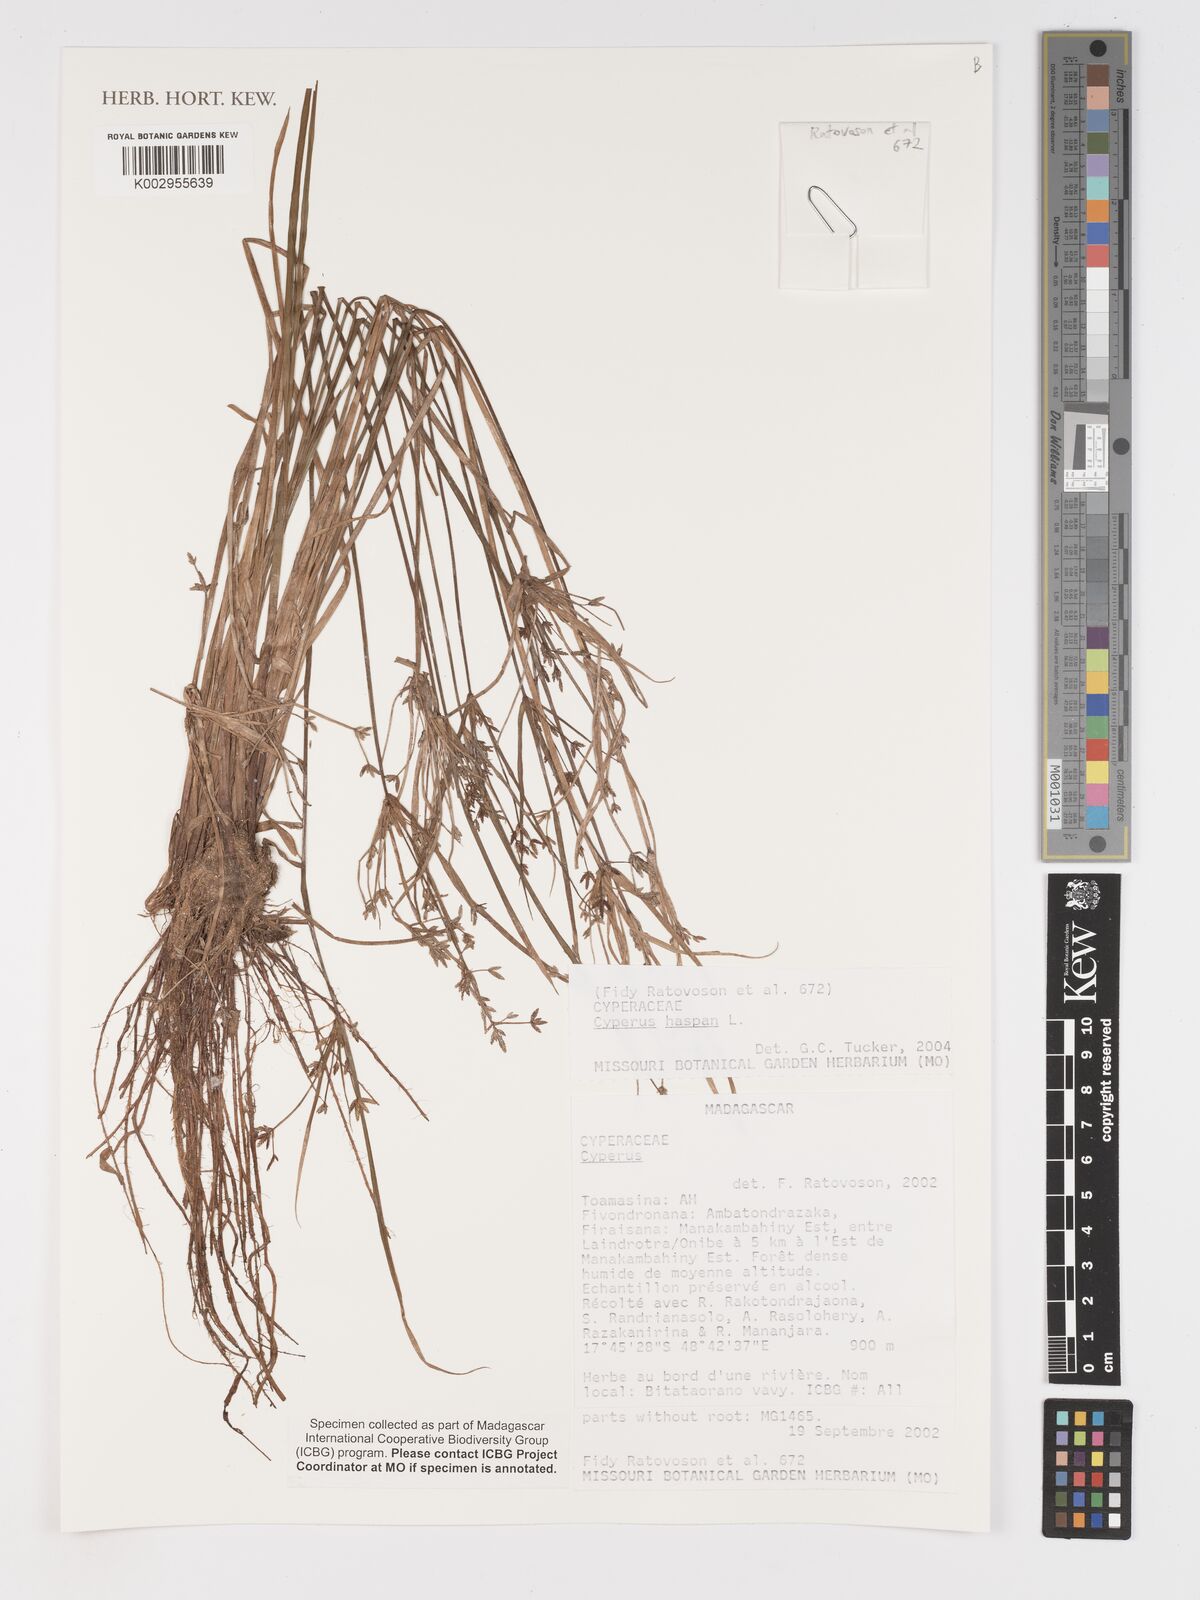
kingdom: Plantae
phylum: Tracheophyta
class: Liliopsida
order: Poales
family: Cyperaceae
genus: Cyperus
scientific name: Cyperus haspan
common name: Haspan flatsedge
